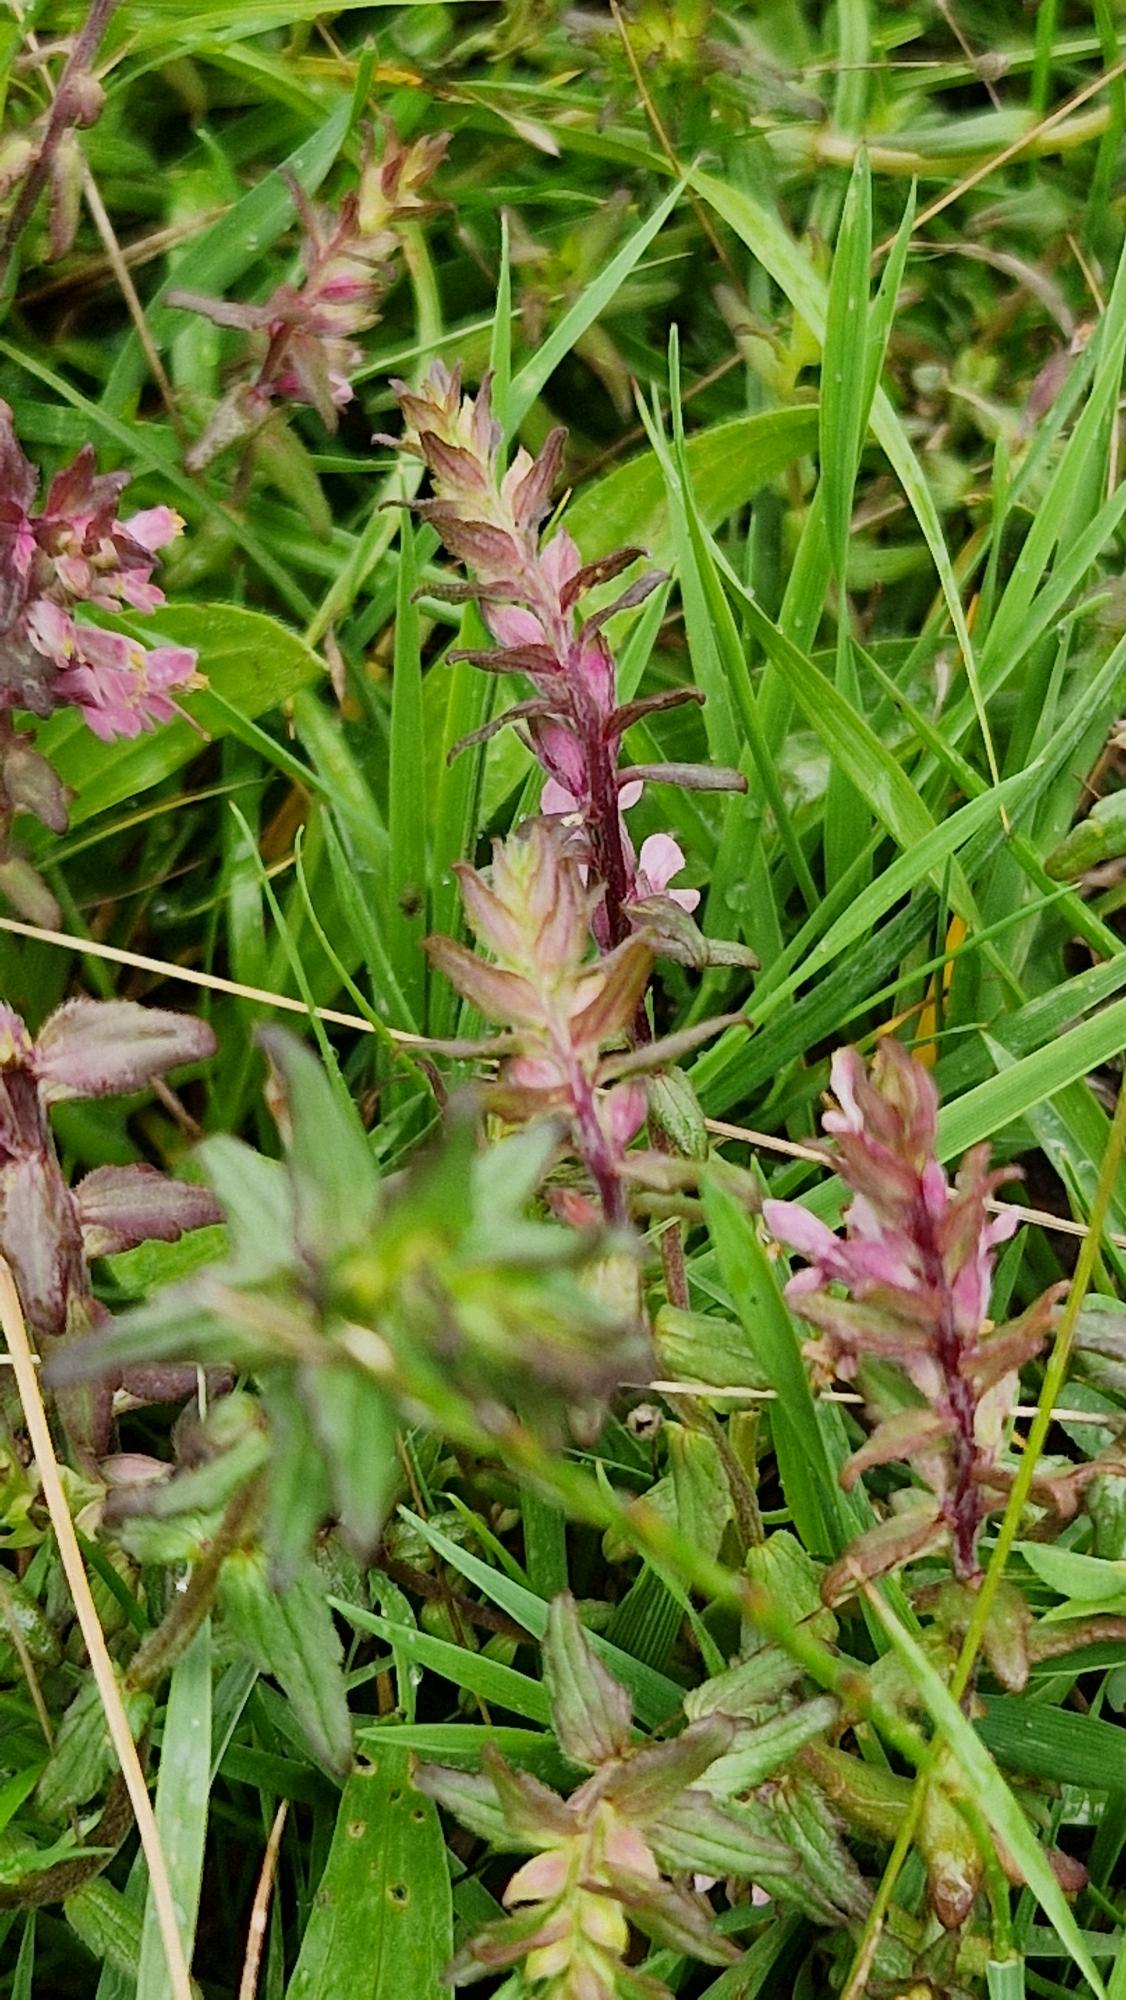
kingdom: Plantae
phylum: Tracheophyta
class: Magnoliopsida
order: Lamiales
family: Orobanchaceae
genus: Odontites
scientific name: Odontites vulgaris
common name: Høst-rødtop
